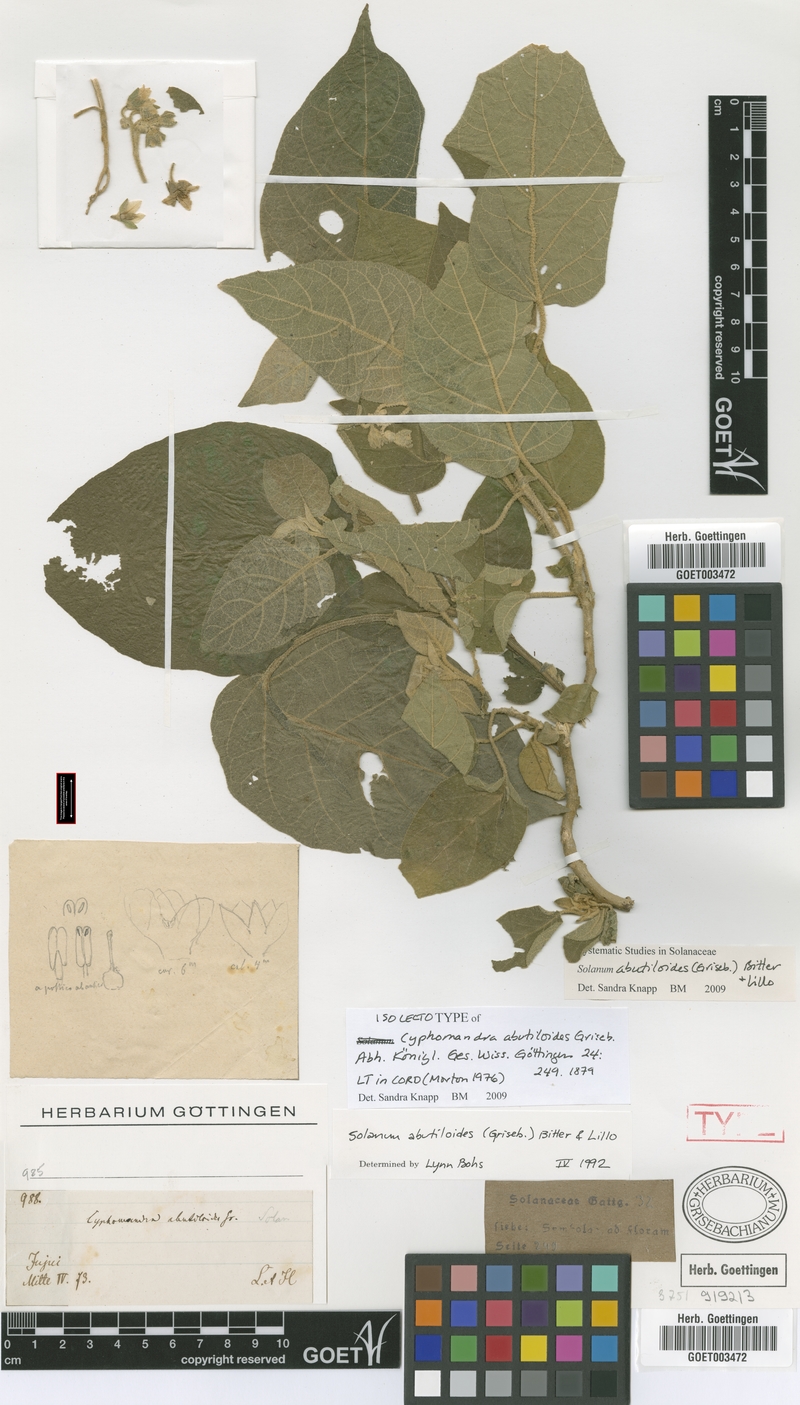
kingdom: Plantae
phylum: Tracheophyta
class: Magnoliopsida
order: Solanales
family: Solanaceae
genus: Solanum
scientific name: Solanum abutiloides
